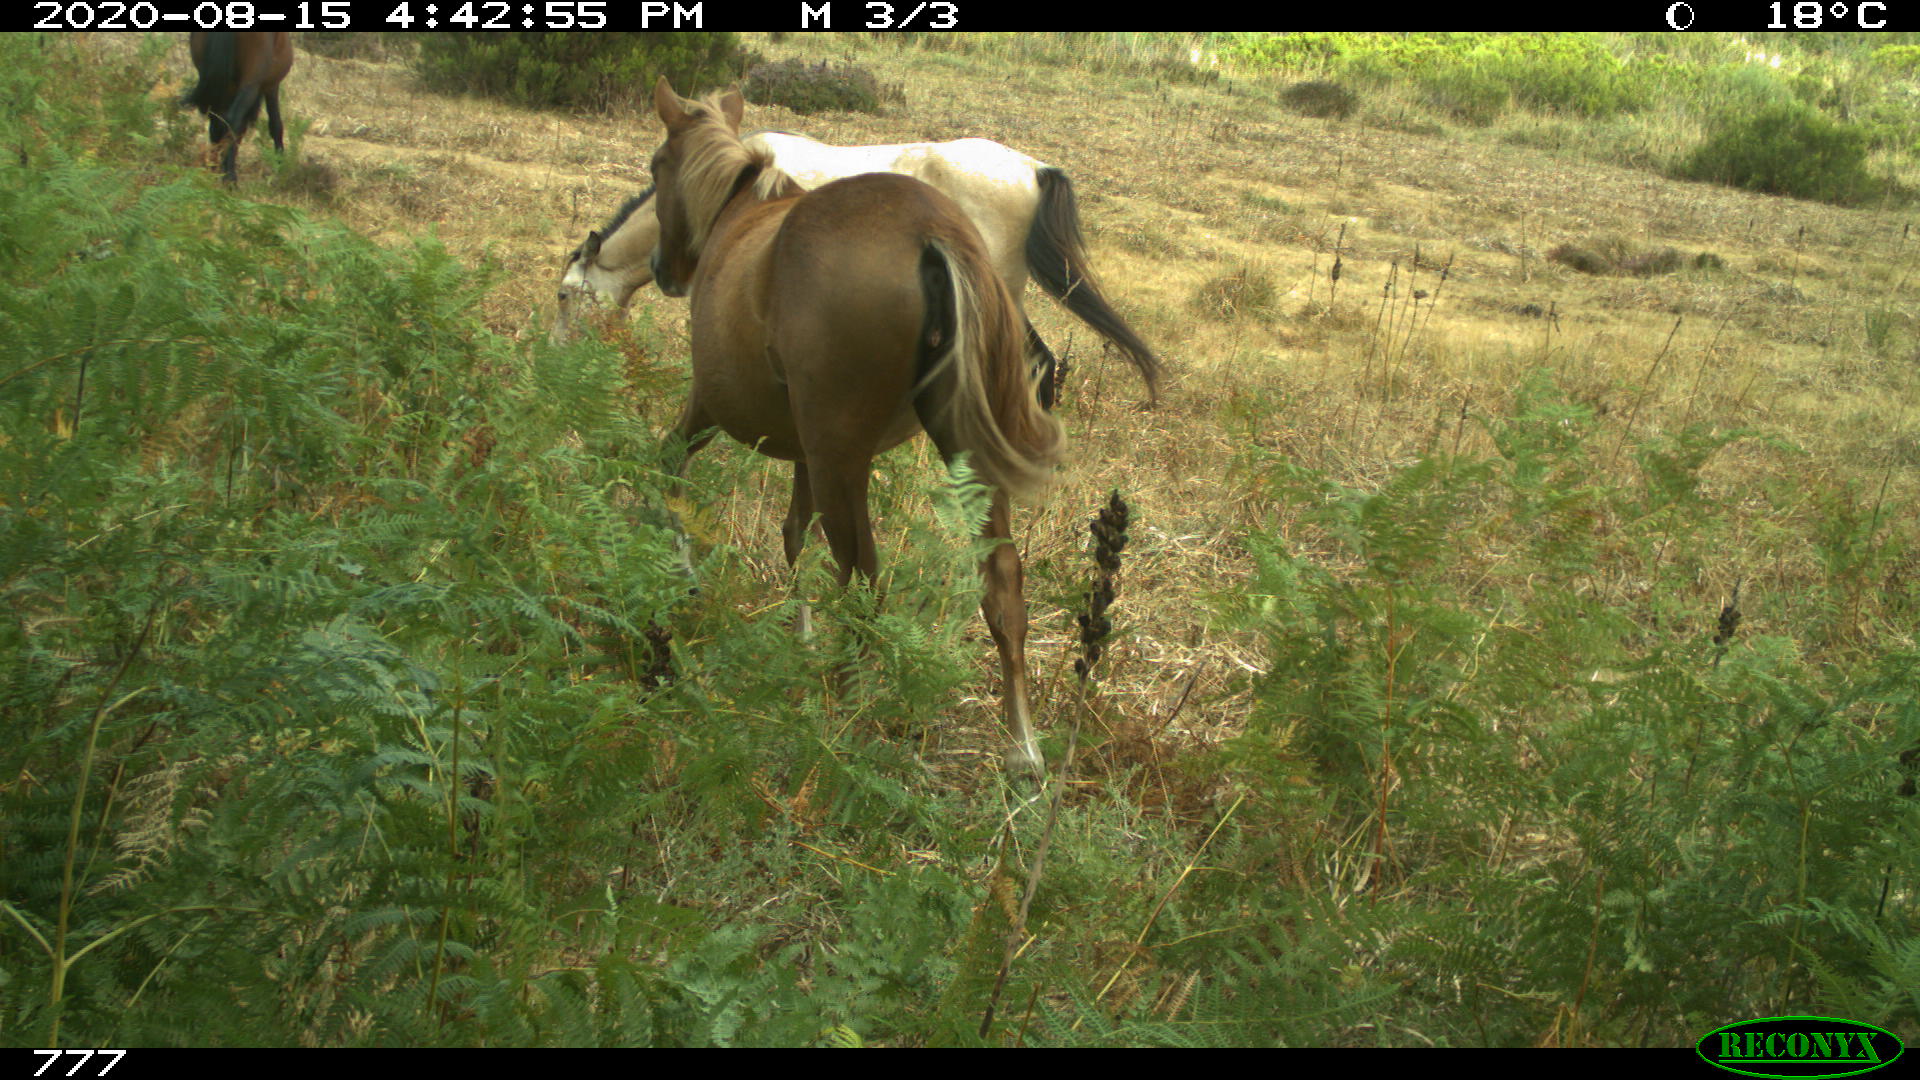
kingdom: Animalia
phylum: Chordata
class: Mammalia
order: Perissodactyla
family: Equidae
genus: Equus
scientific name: Equus caballus
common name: Horse
